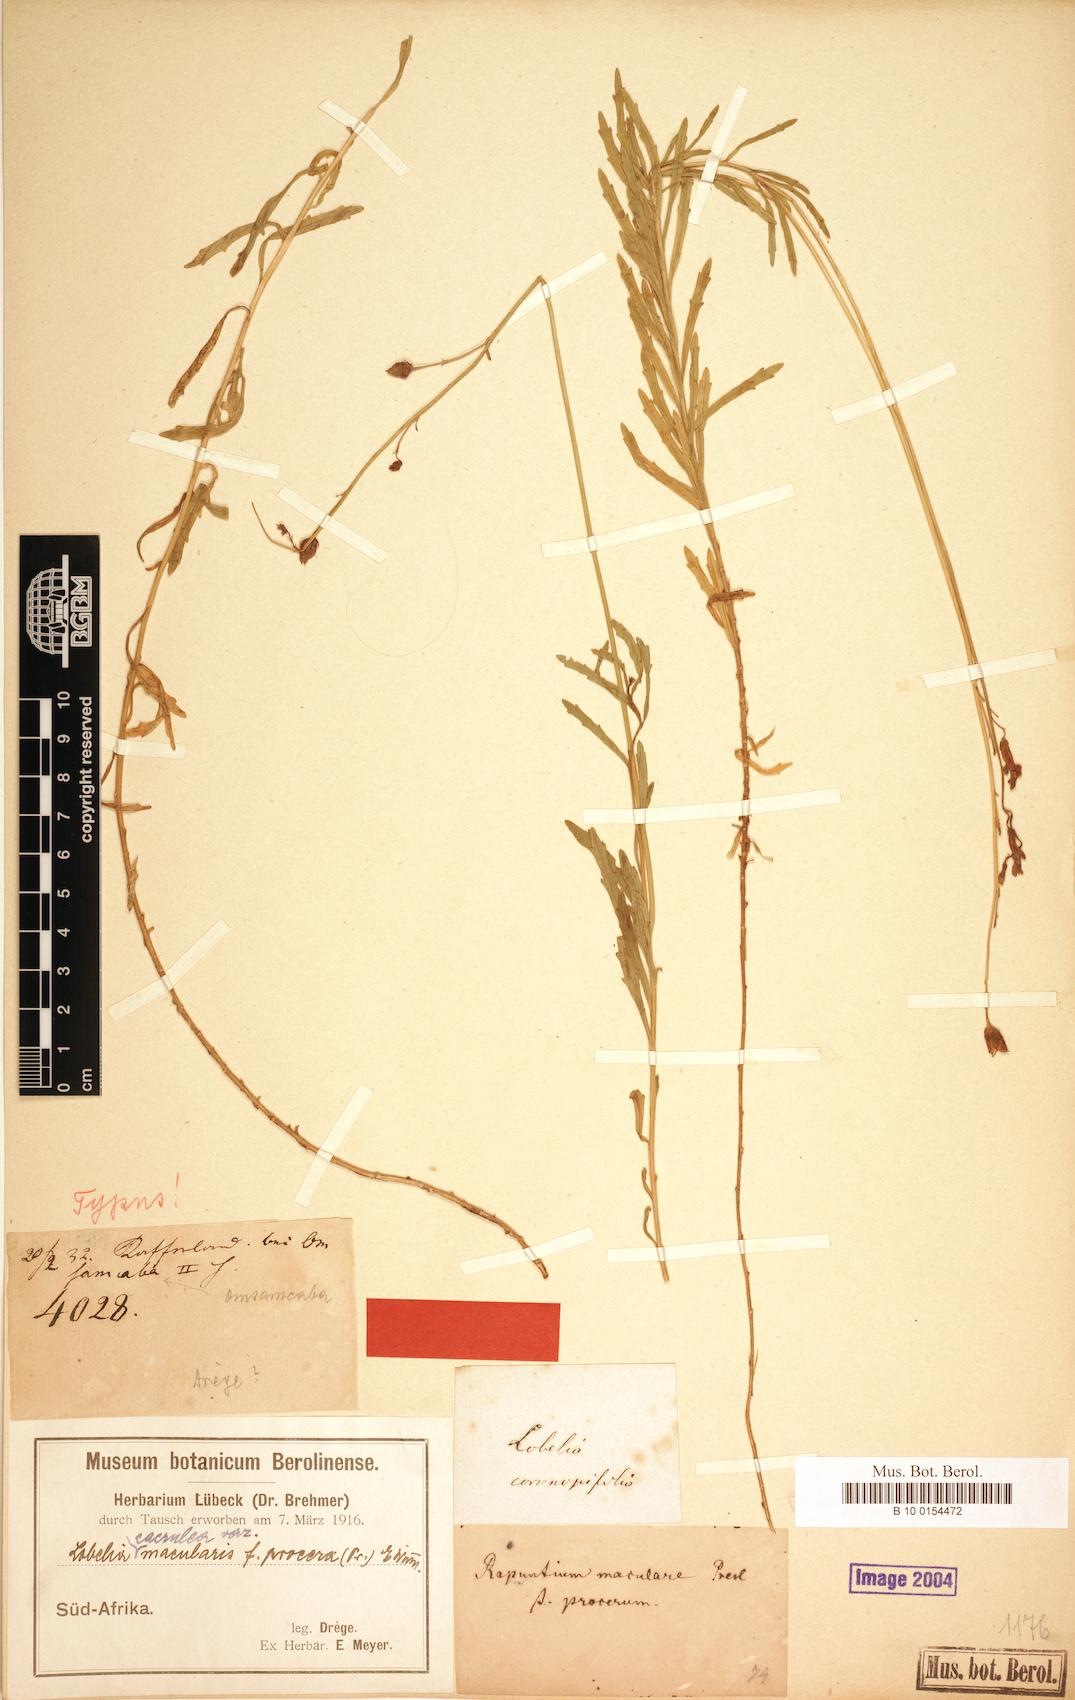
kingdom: Plantae
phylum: Tracheophyta
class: Magnoliopsida
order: Asterales
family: Campanulaceae
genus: Lobelia
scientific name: Lobelia caerulea
